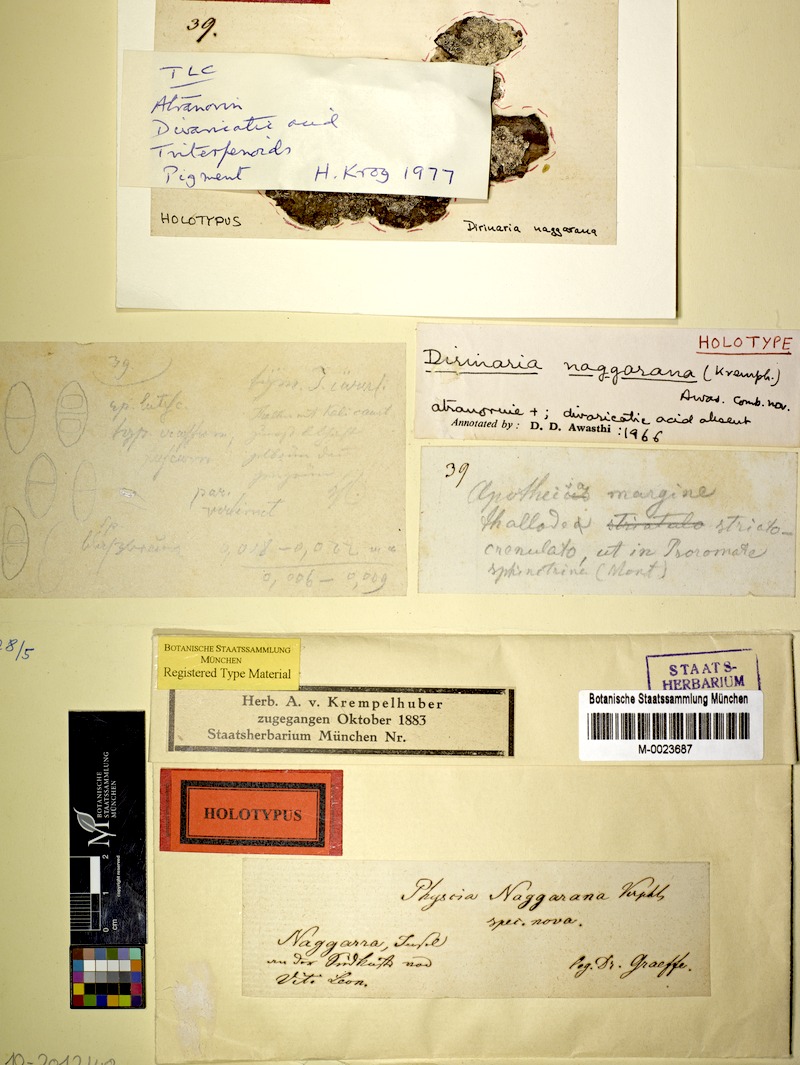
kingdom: Fungi
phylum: Ascomycota
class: Lecanoromycetes
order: Caliciales
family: Caliciaceae
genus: Dirinaria
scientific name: Dirinaria
